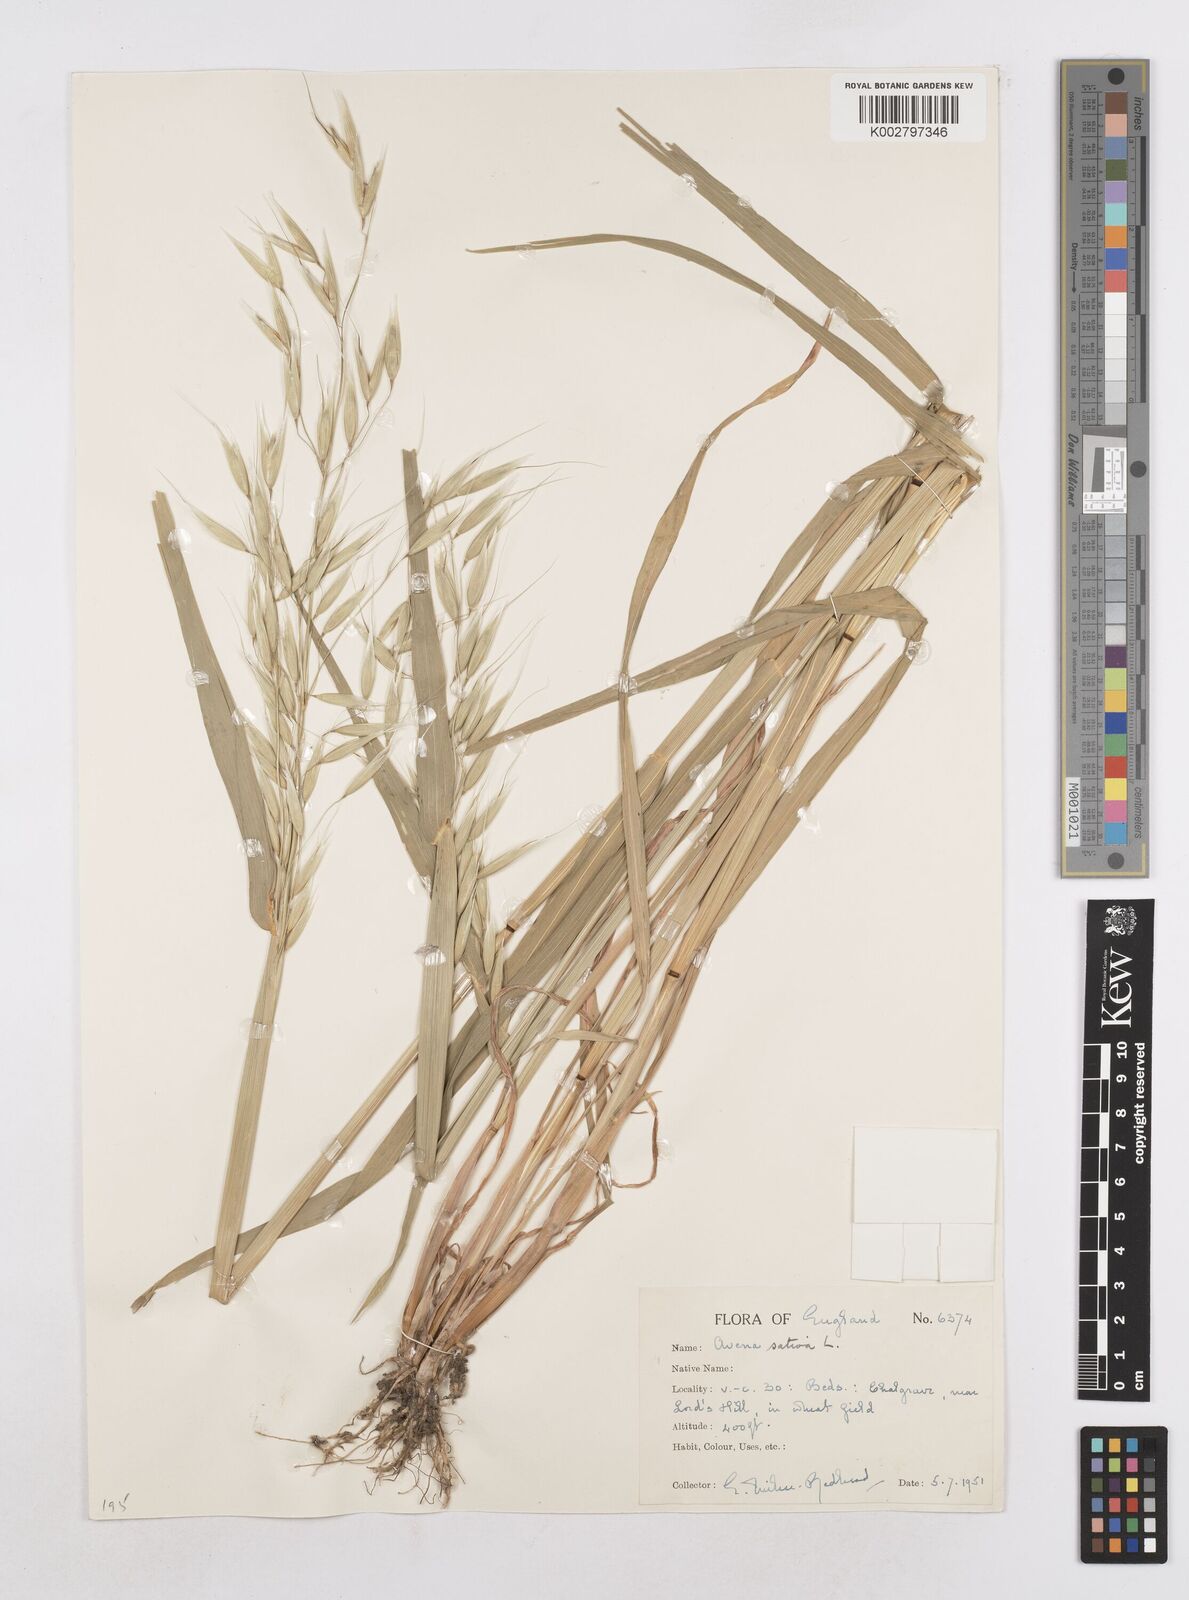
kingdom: Plantae
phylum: Tracheophyta
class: Liliopsida
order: Poales
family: Poaceae
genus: Avena
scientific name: Avena fatua
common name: Wild oat
